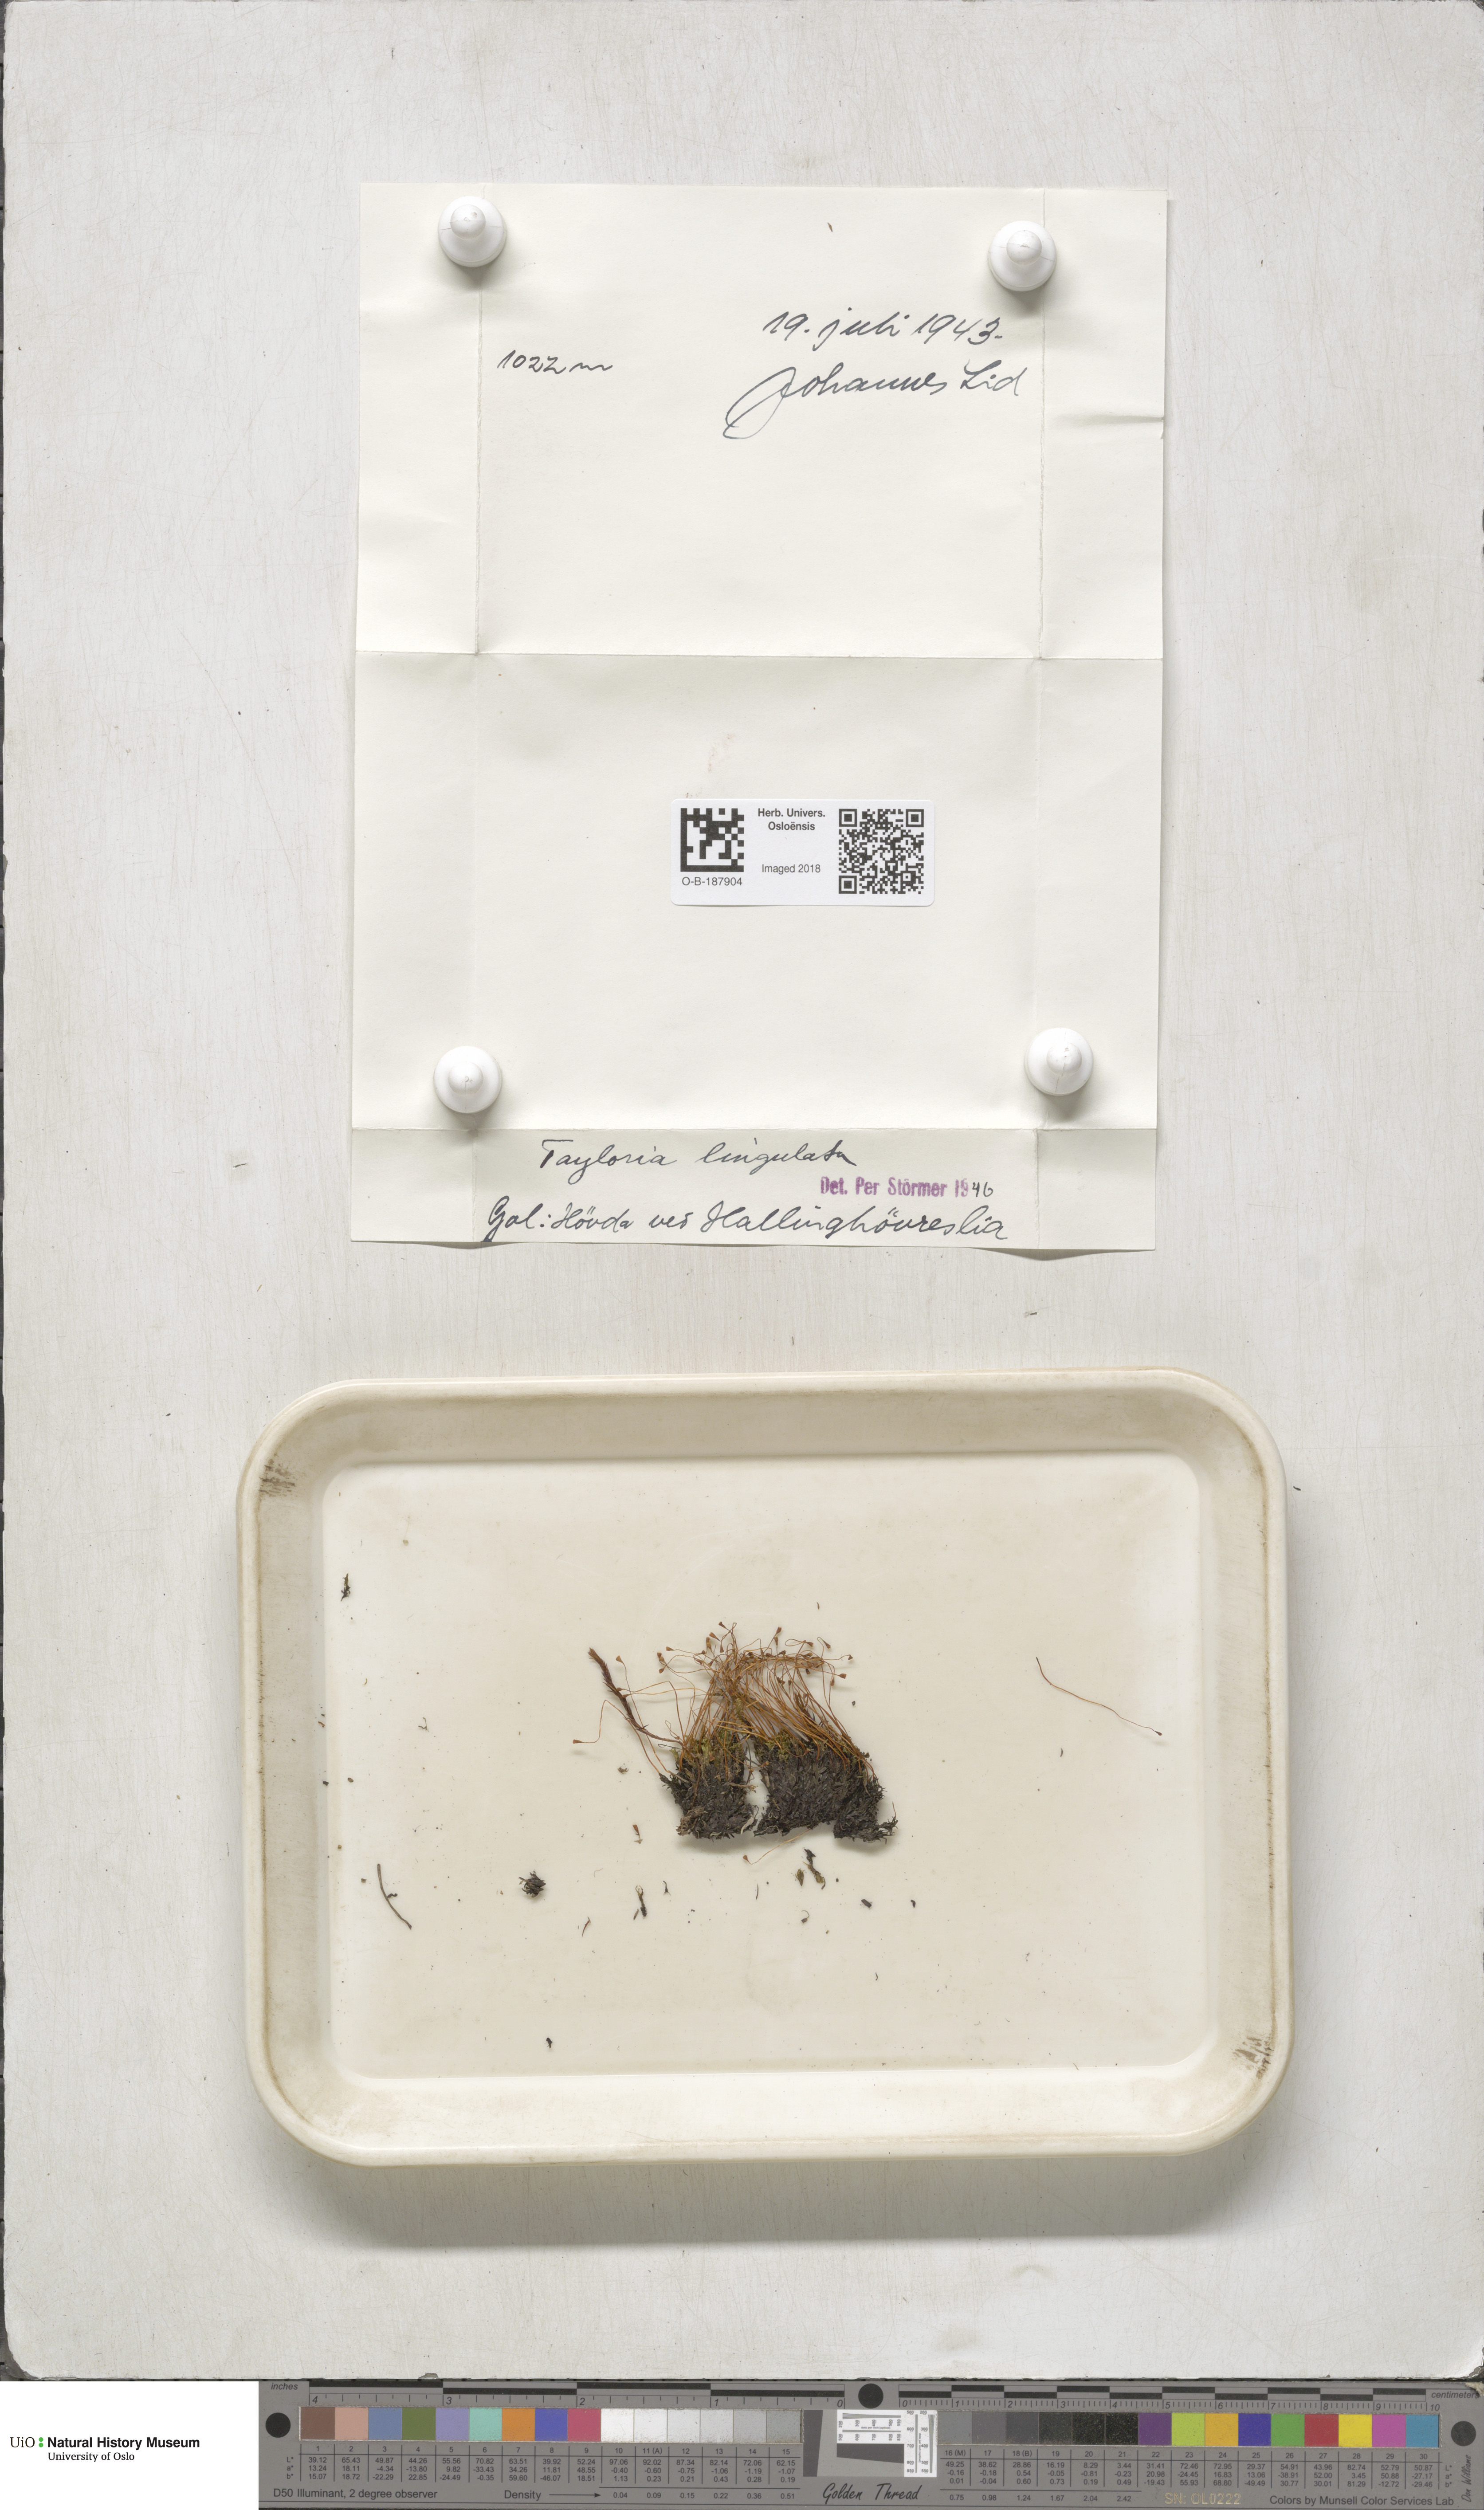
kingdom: Plantae
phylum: Bryophyta
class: Bryopsida
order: Splachnales
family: Splachnaceae
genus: Tayloria
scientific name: Tayloria lingulata
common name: Tongue-leaved trumpet moss
